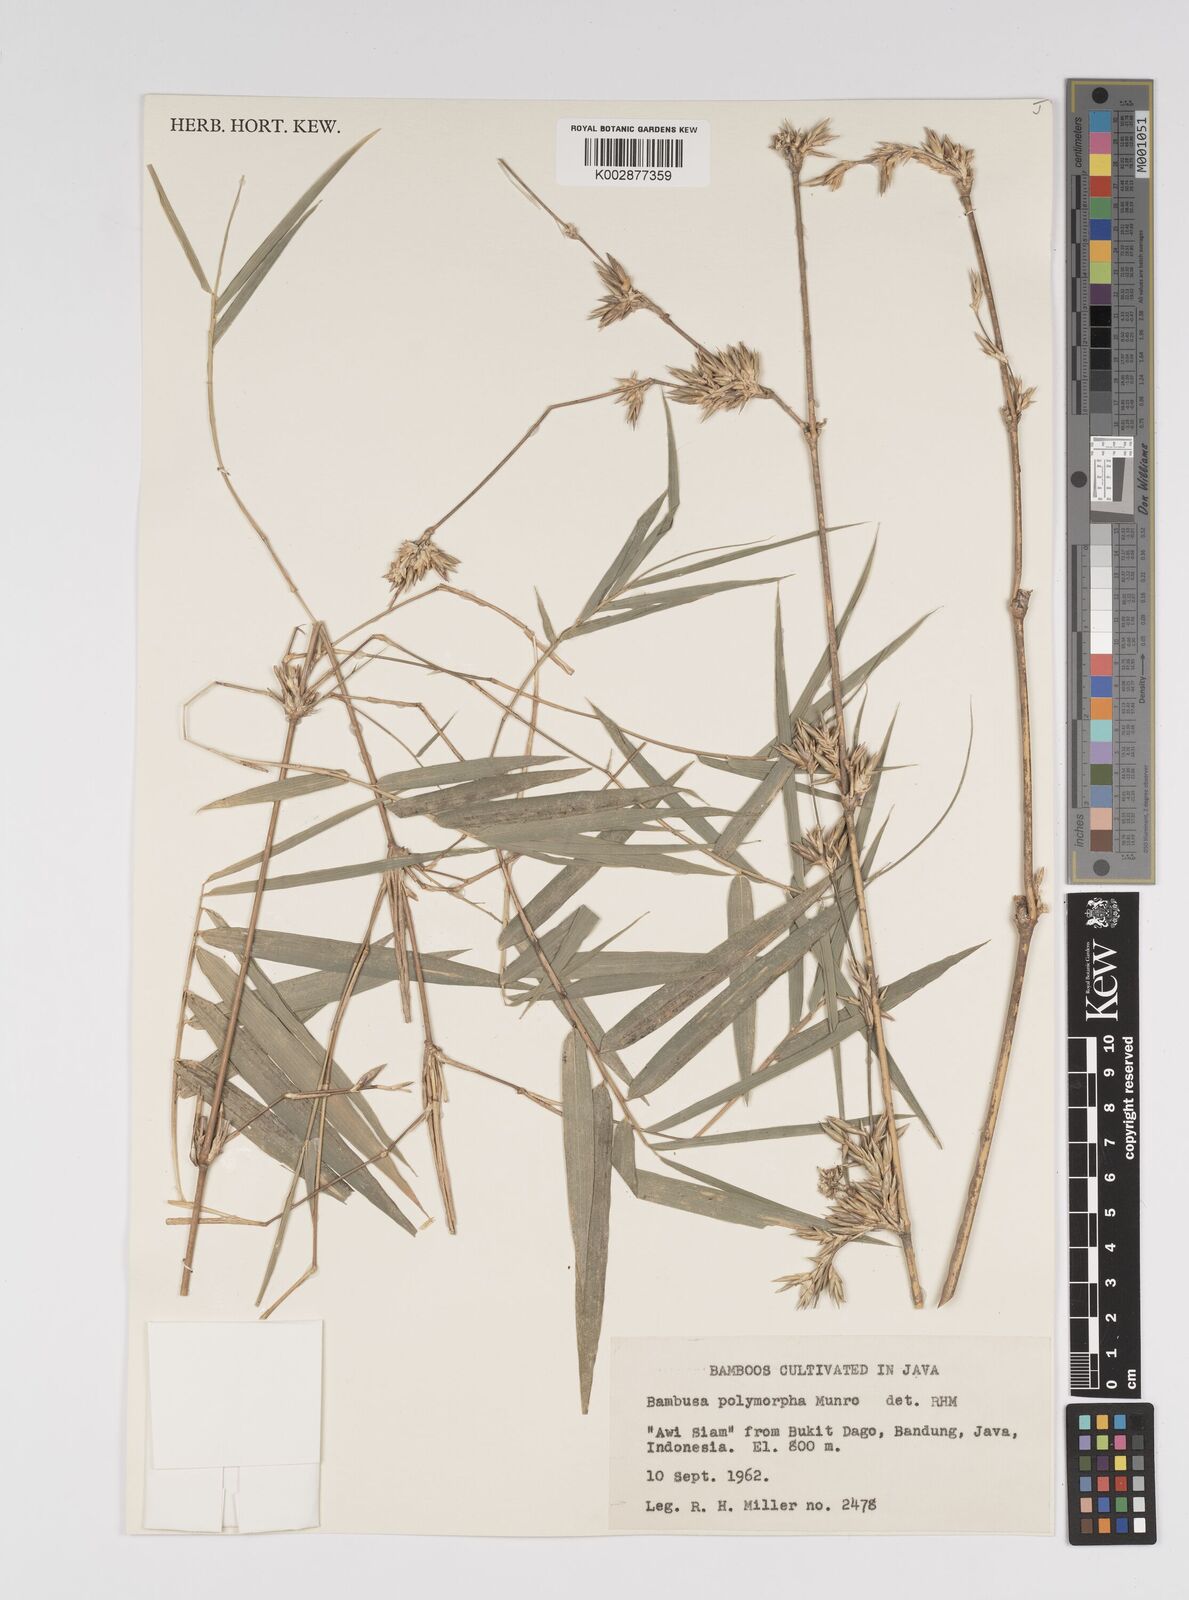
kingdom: Plantae
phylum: Tracheophyta
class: Liliopsida
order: Poales
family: Poaceae
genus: Bambusa
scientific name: Bambusa
